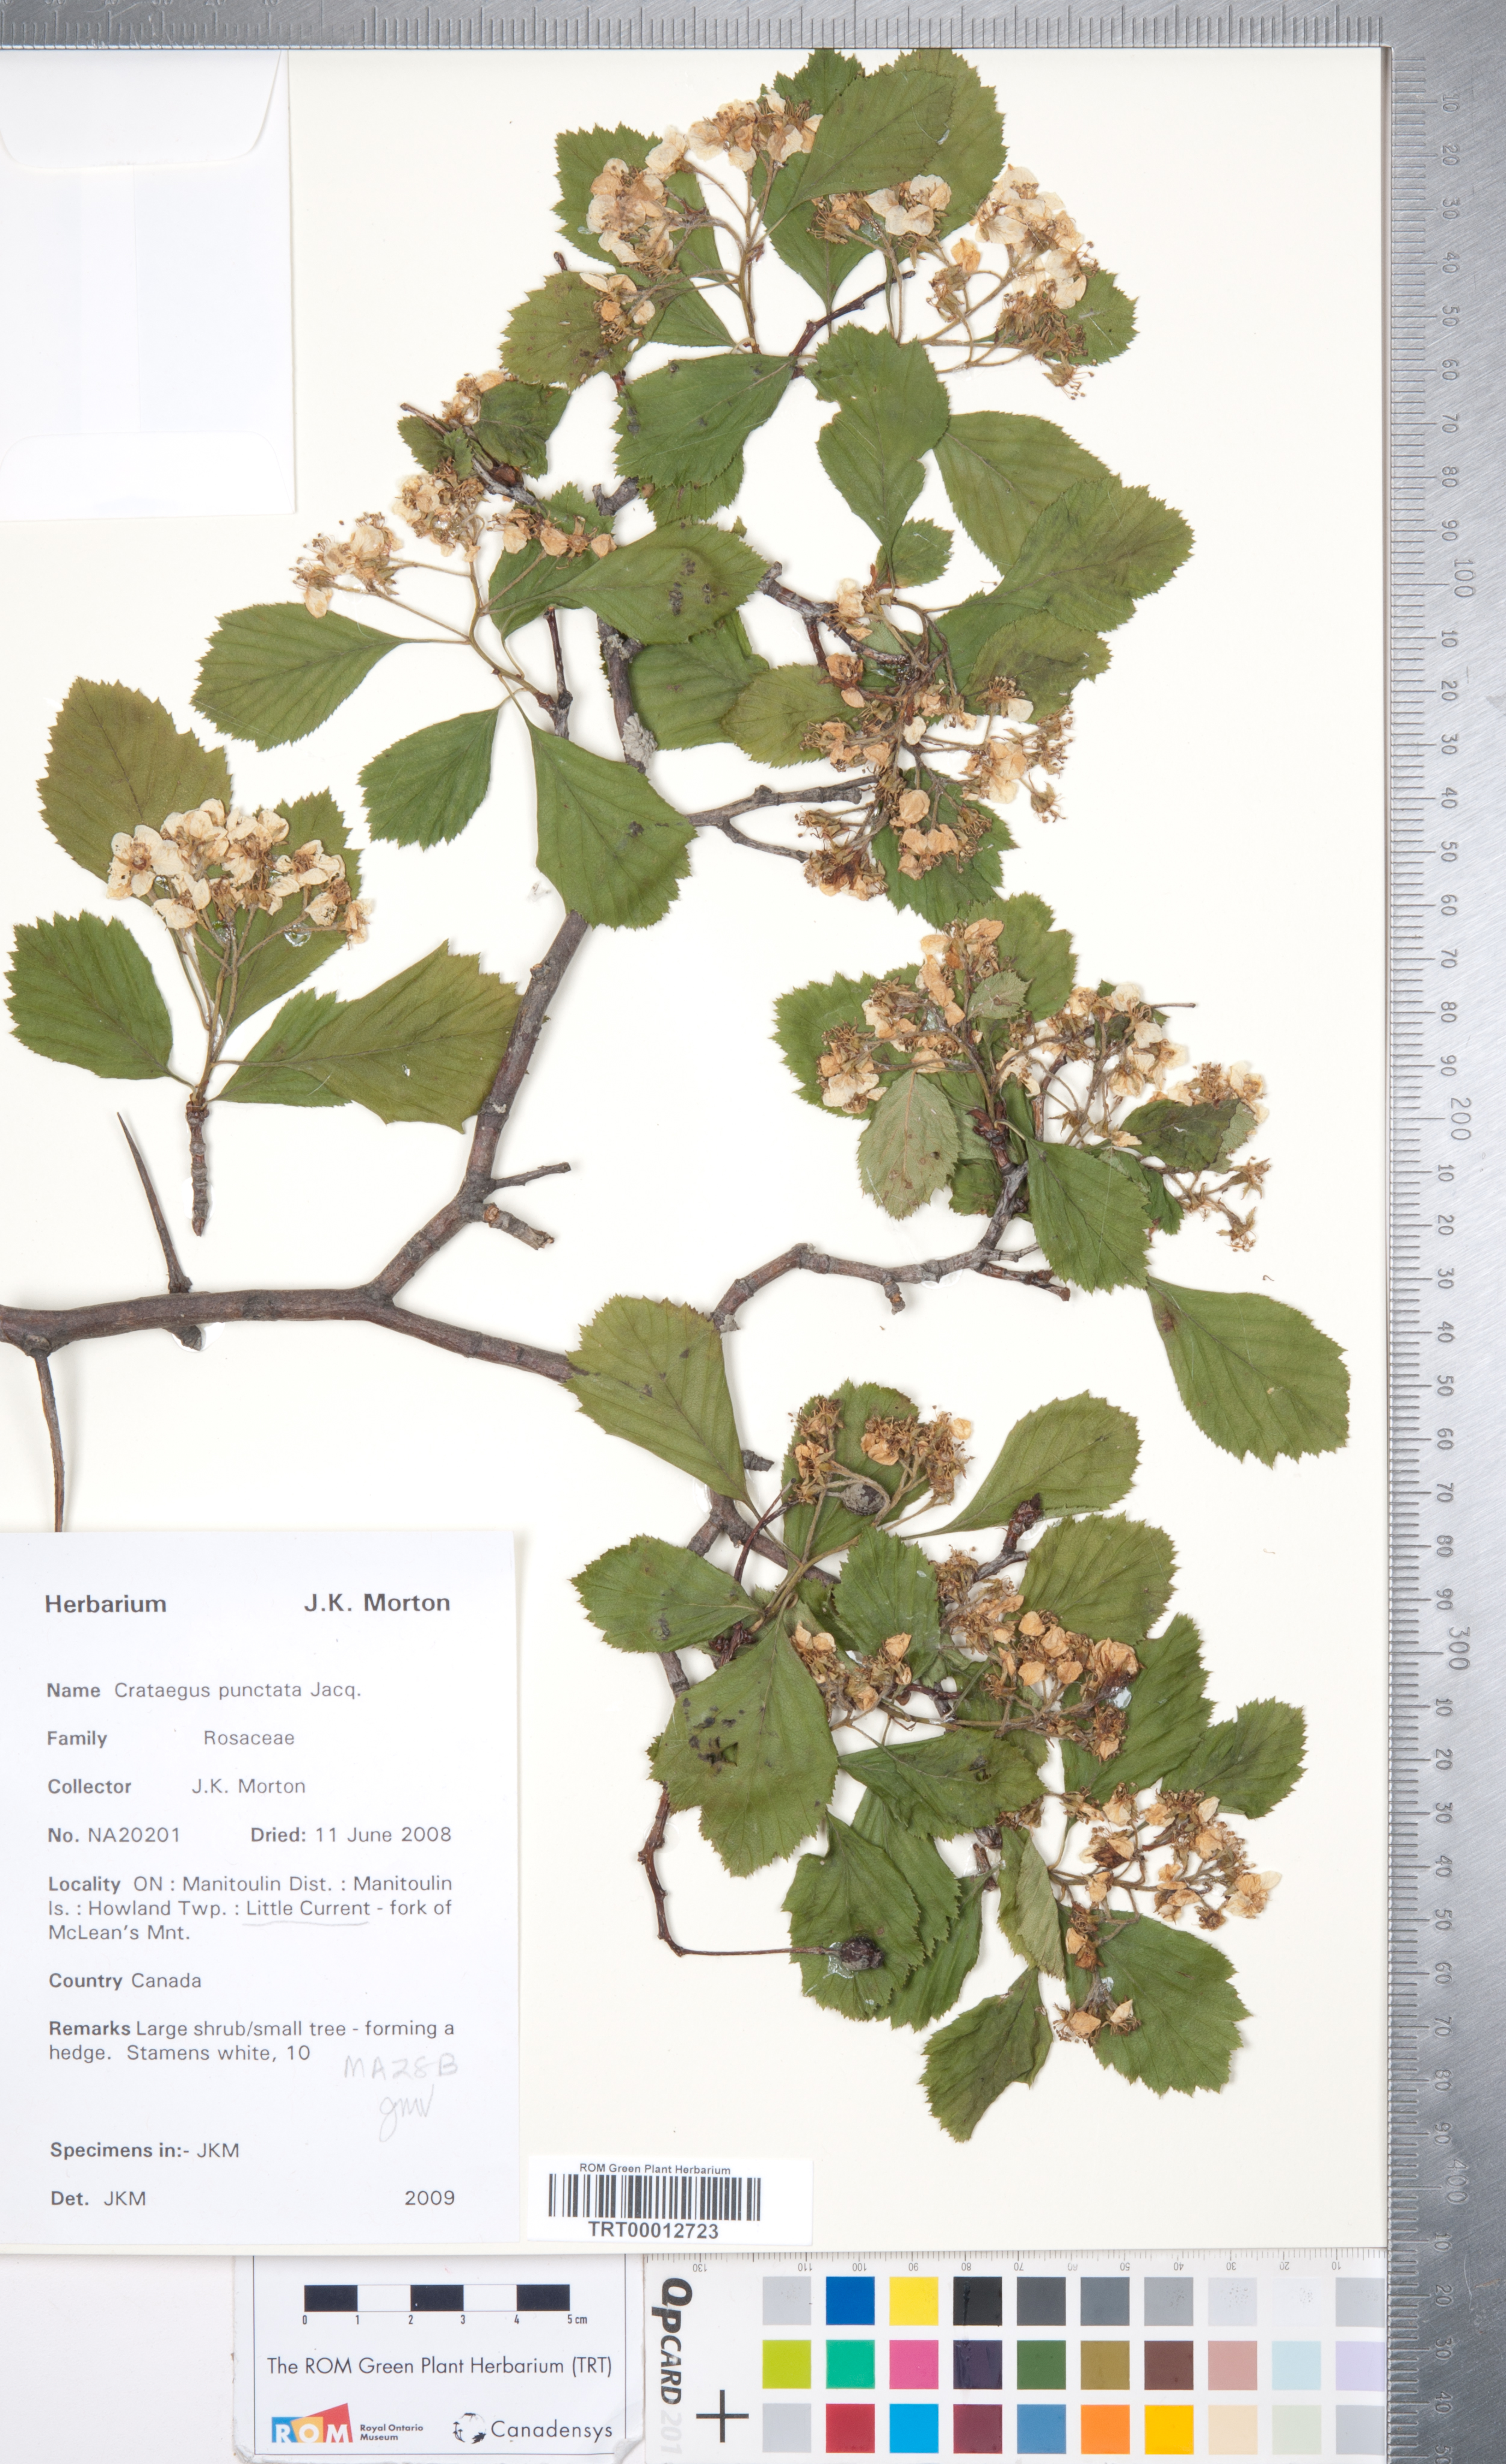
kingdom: Plantae
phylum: Tracheophyta
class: Magnoliopsida
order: Rosales
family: Rosaceae
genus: Crataegus
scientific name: Crataegus punctata
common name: Dotted hawthorn
